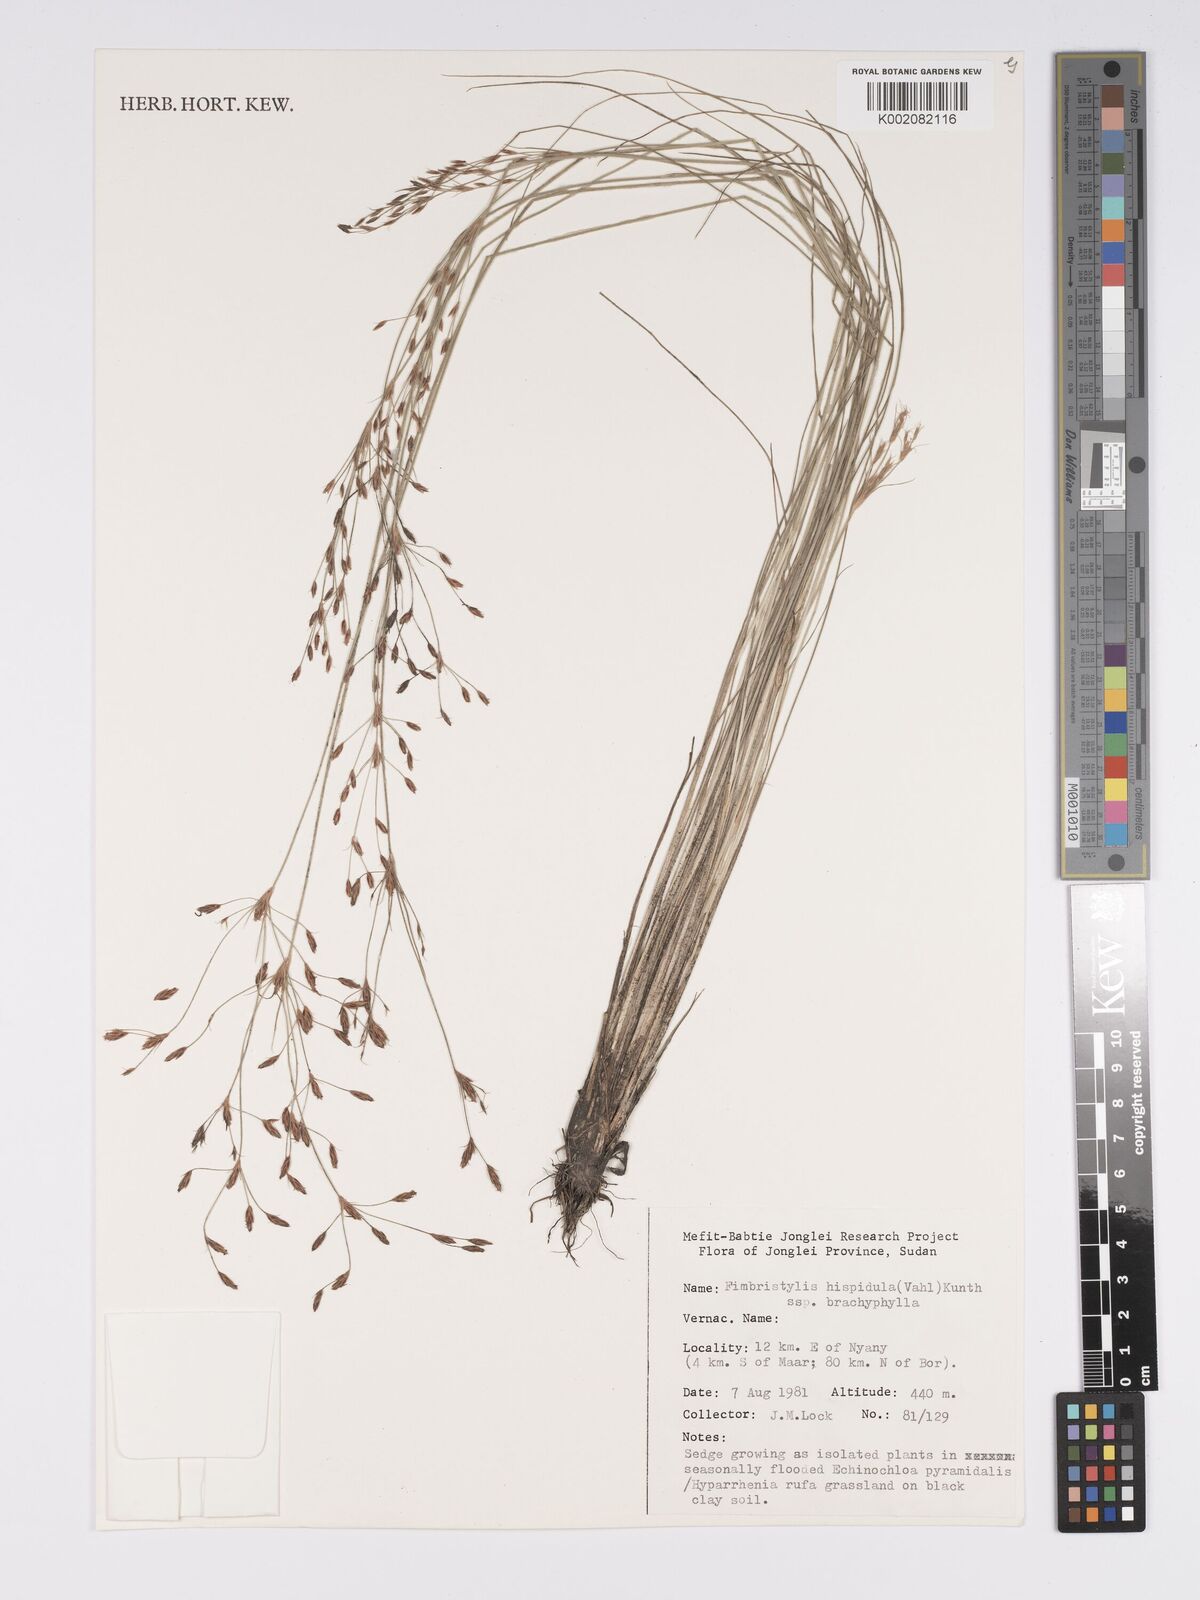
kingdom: Plantae
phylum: Tracheophyta
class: Liliopsida
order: Poales
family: Cyperaceae
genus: Bulbostylis
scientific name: Bulbostylis hispidula
